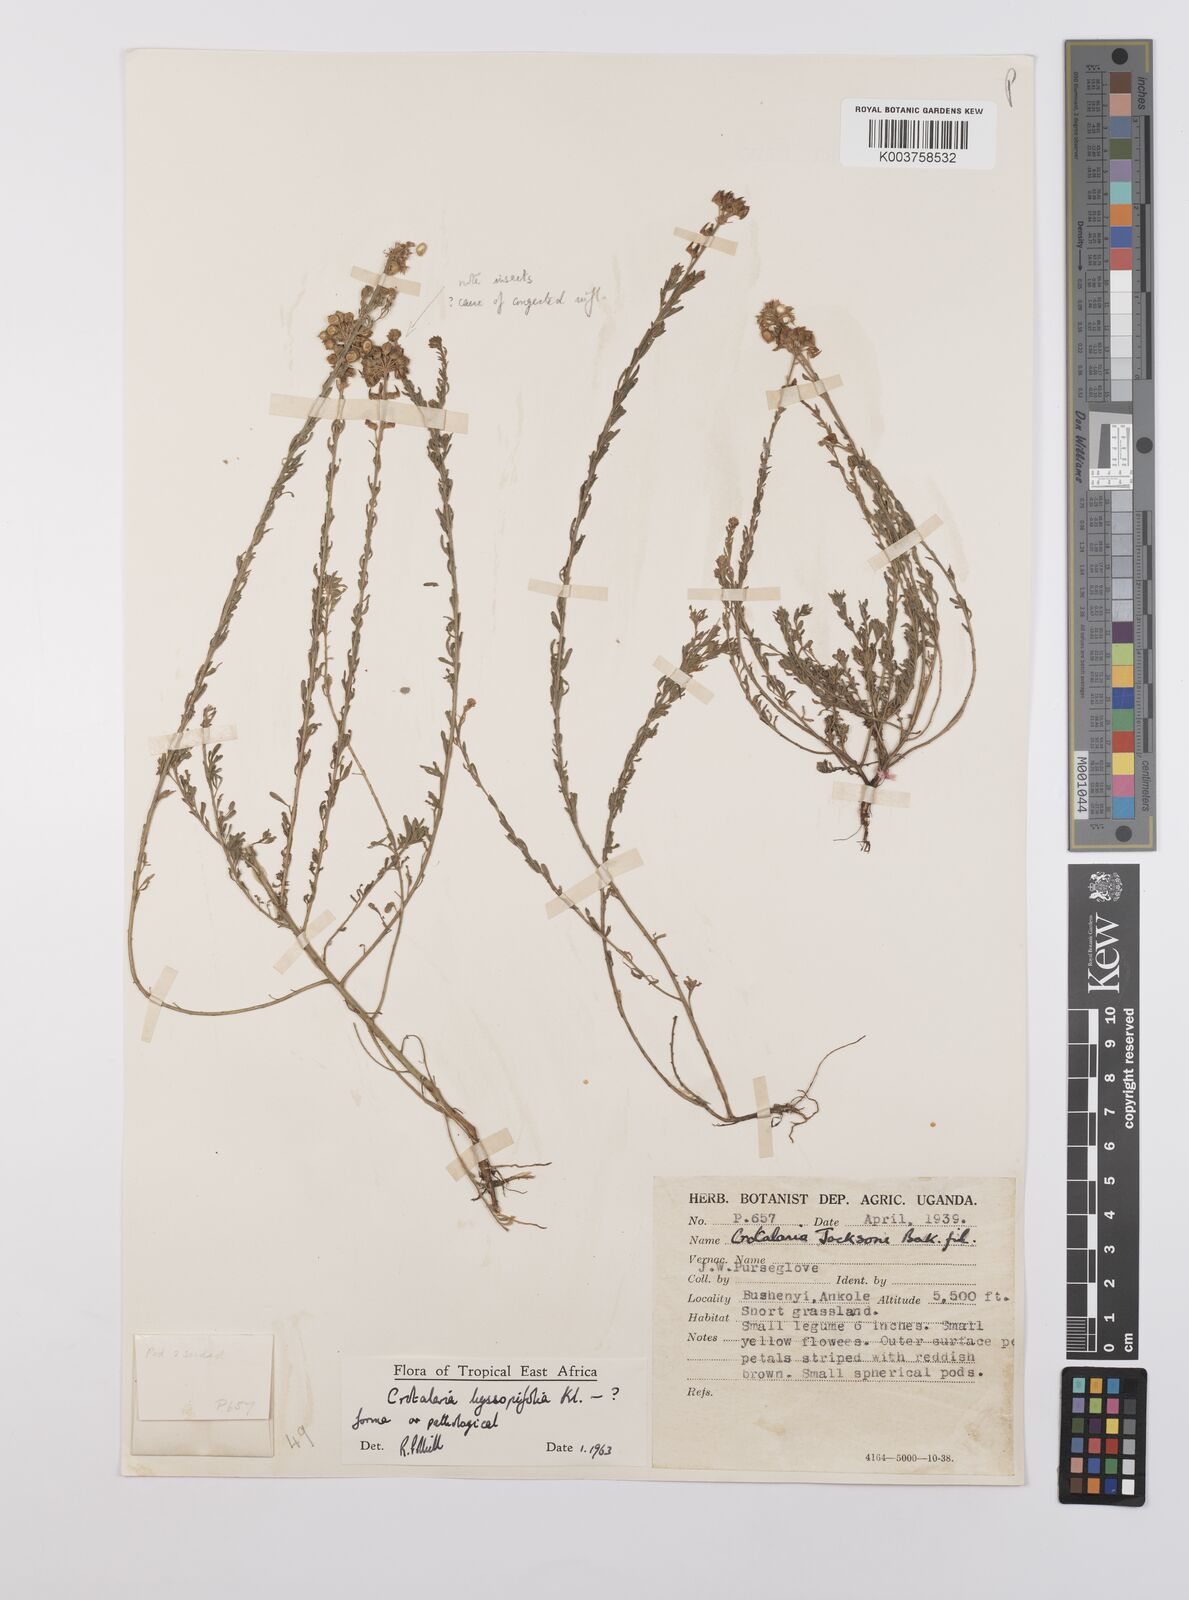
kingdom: Plantae
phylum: Tracheophyta
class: Magnoliopsida
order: Fabales
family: Fabaceae
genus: Crotalaria
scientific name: Crotalaria hyssopifolia
